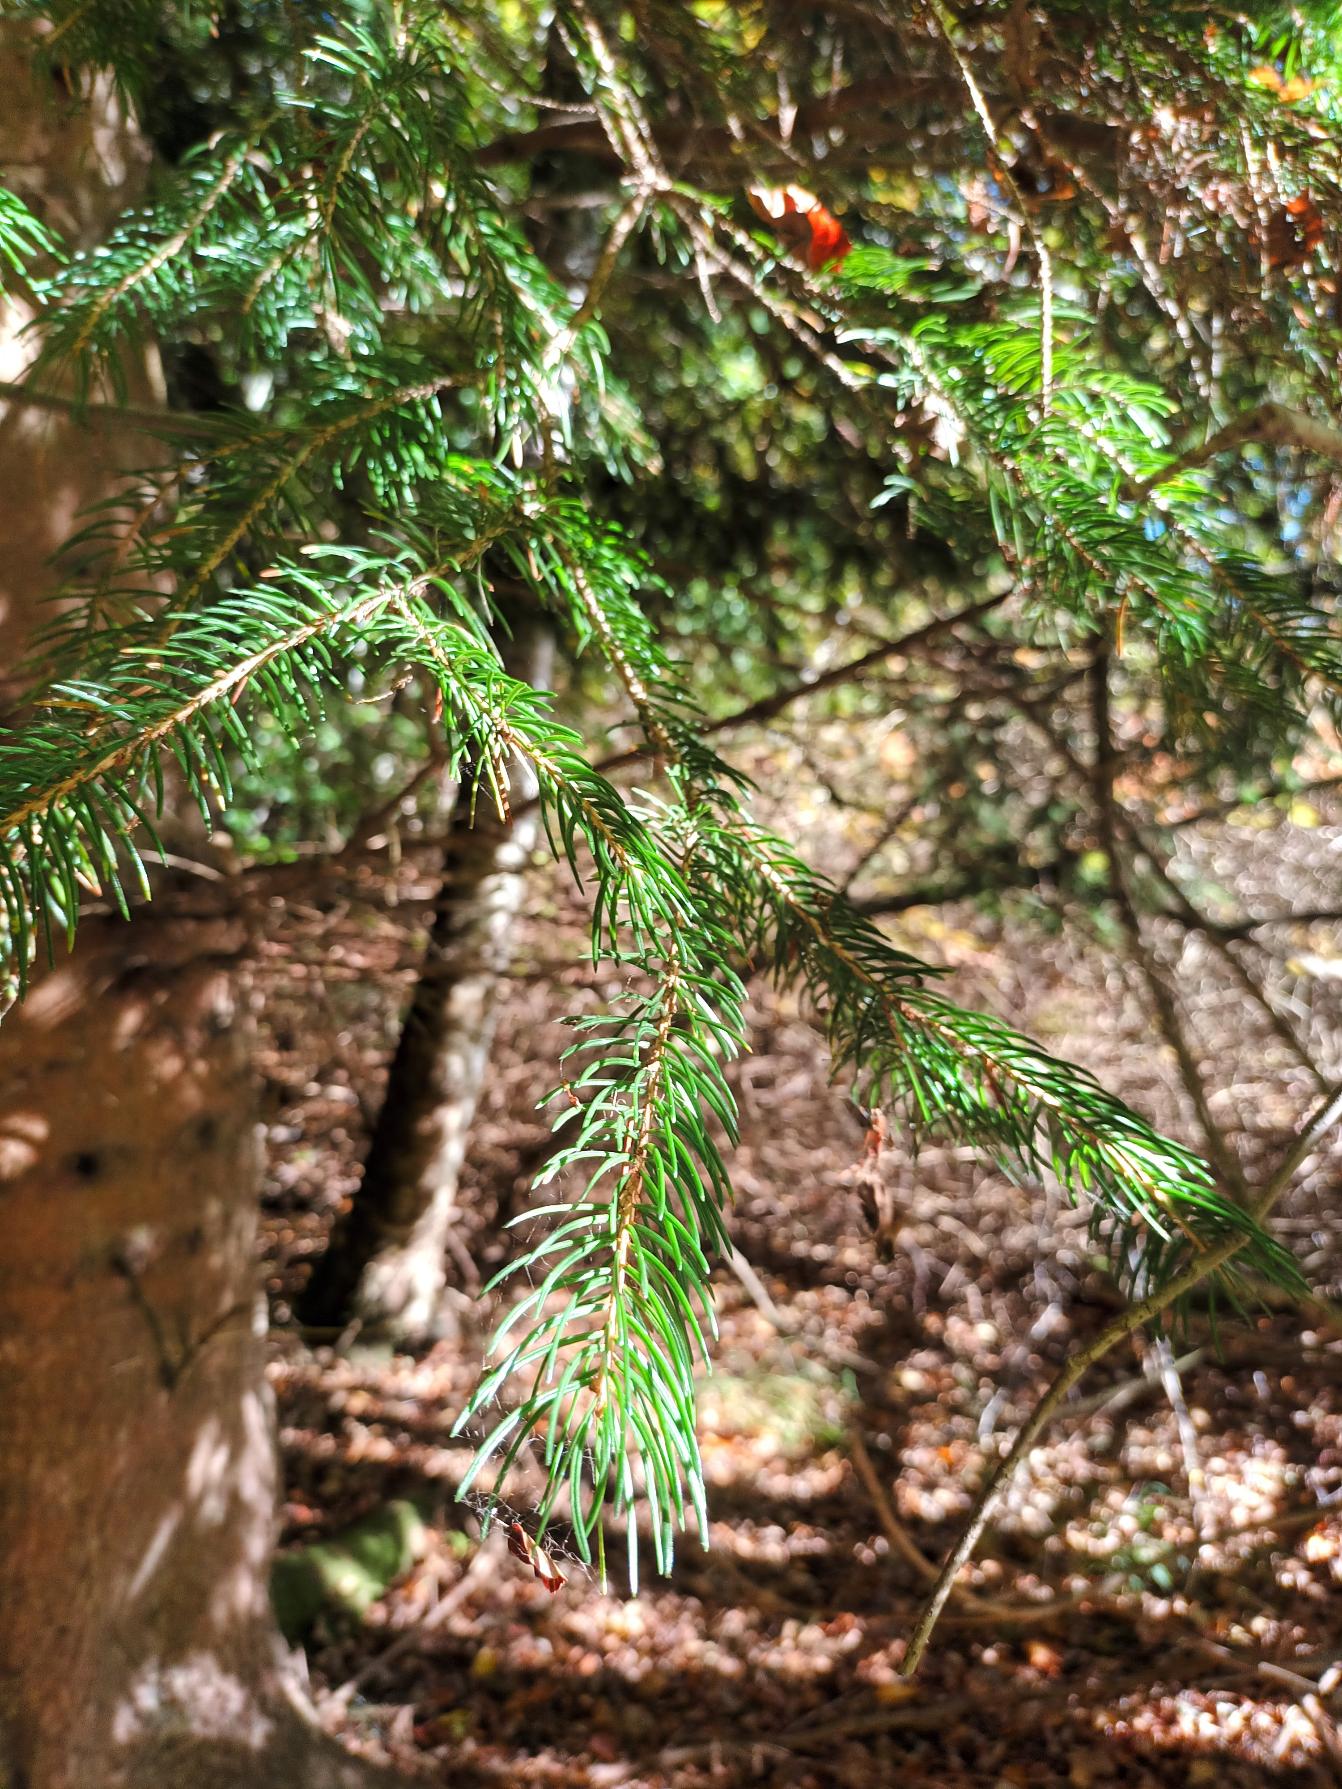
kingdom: Plantae
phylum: Tracheophyta
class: Pinopsida
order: Pinales
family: Pinaceae
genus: Picea
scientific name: Picea abies
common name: Rød-gran
